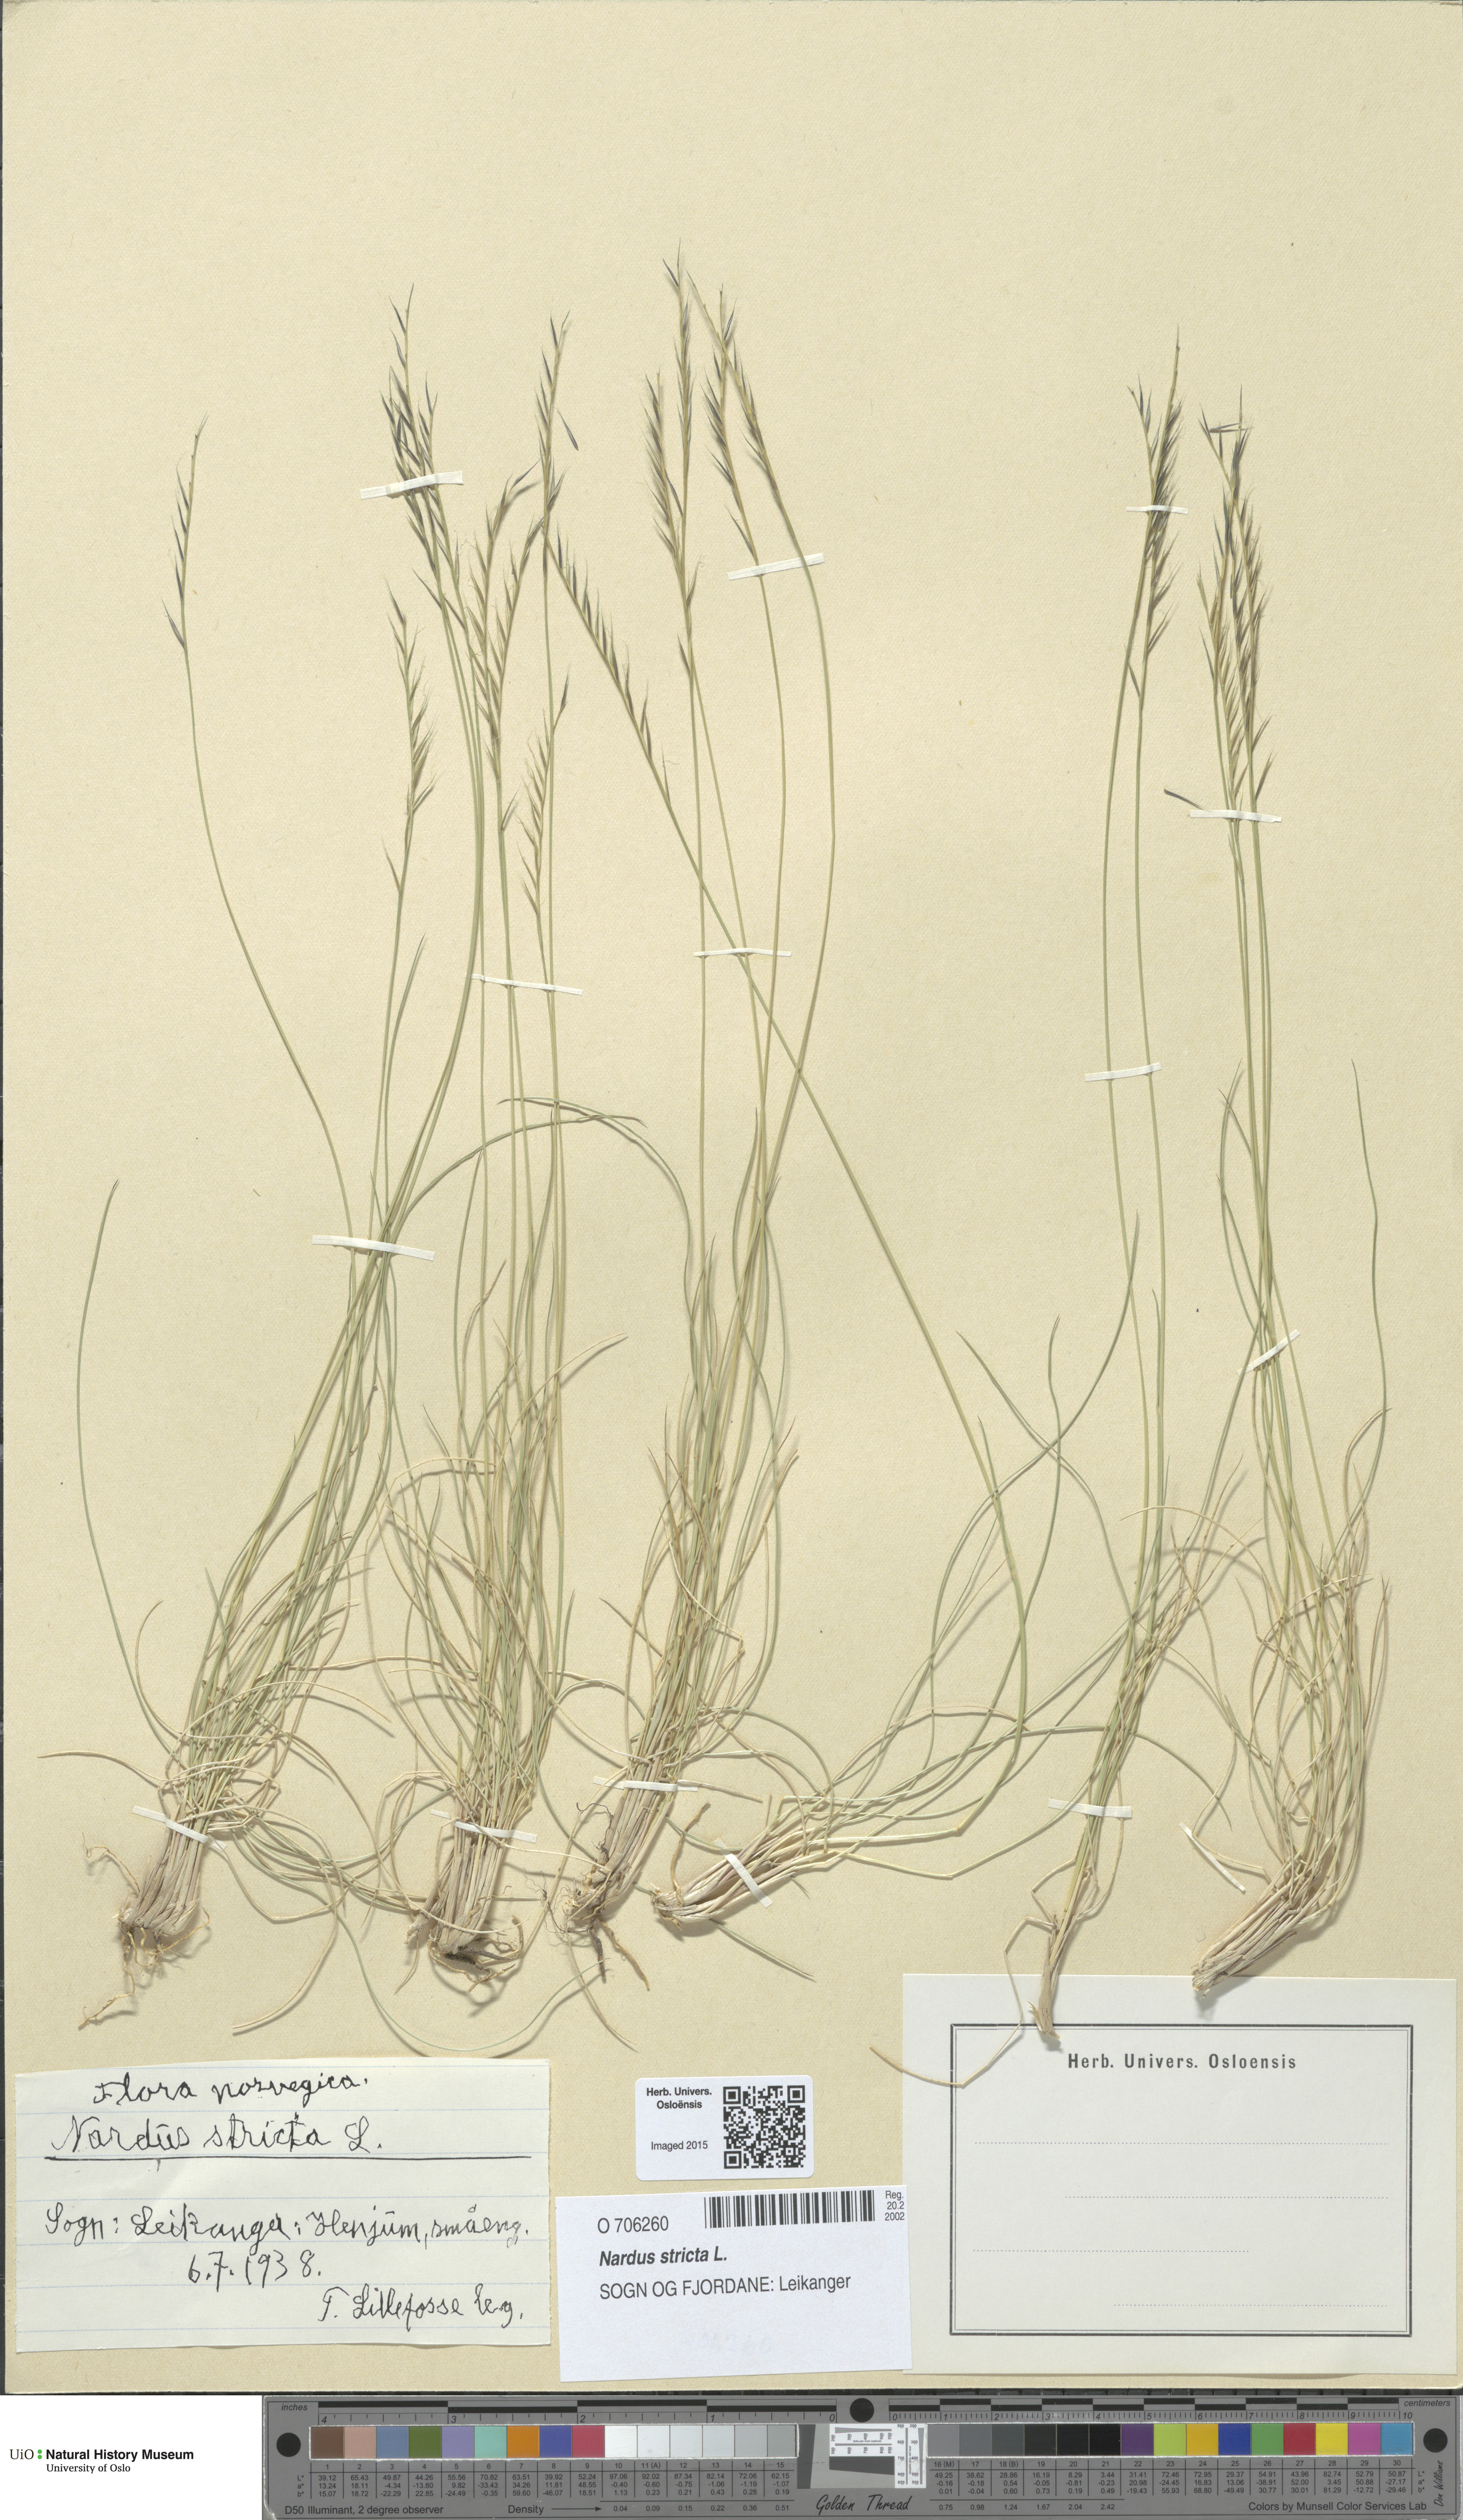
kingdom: Plantae
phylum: Tracheophyta
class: Liliopsida
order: Poales
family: Poaceae
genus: Nardus
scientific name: Nardus stricta
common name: Mat-grass
